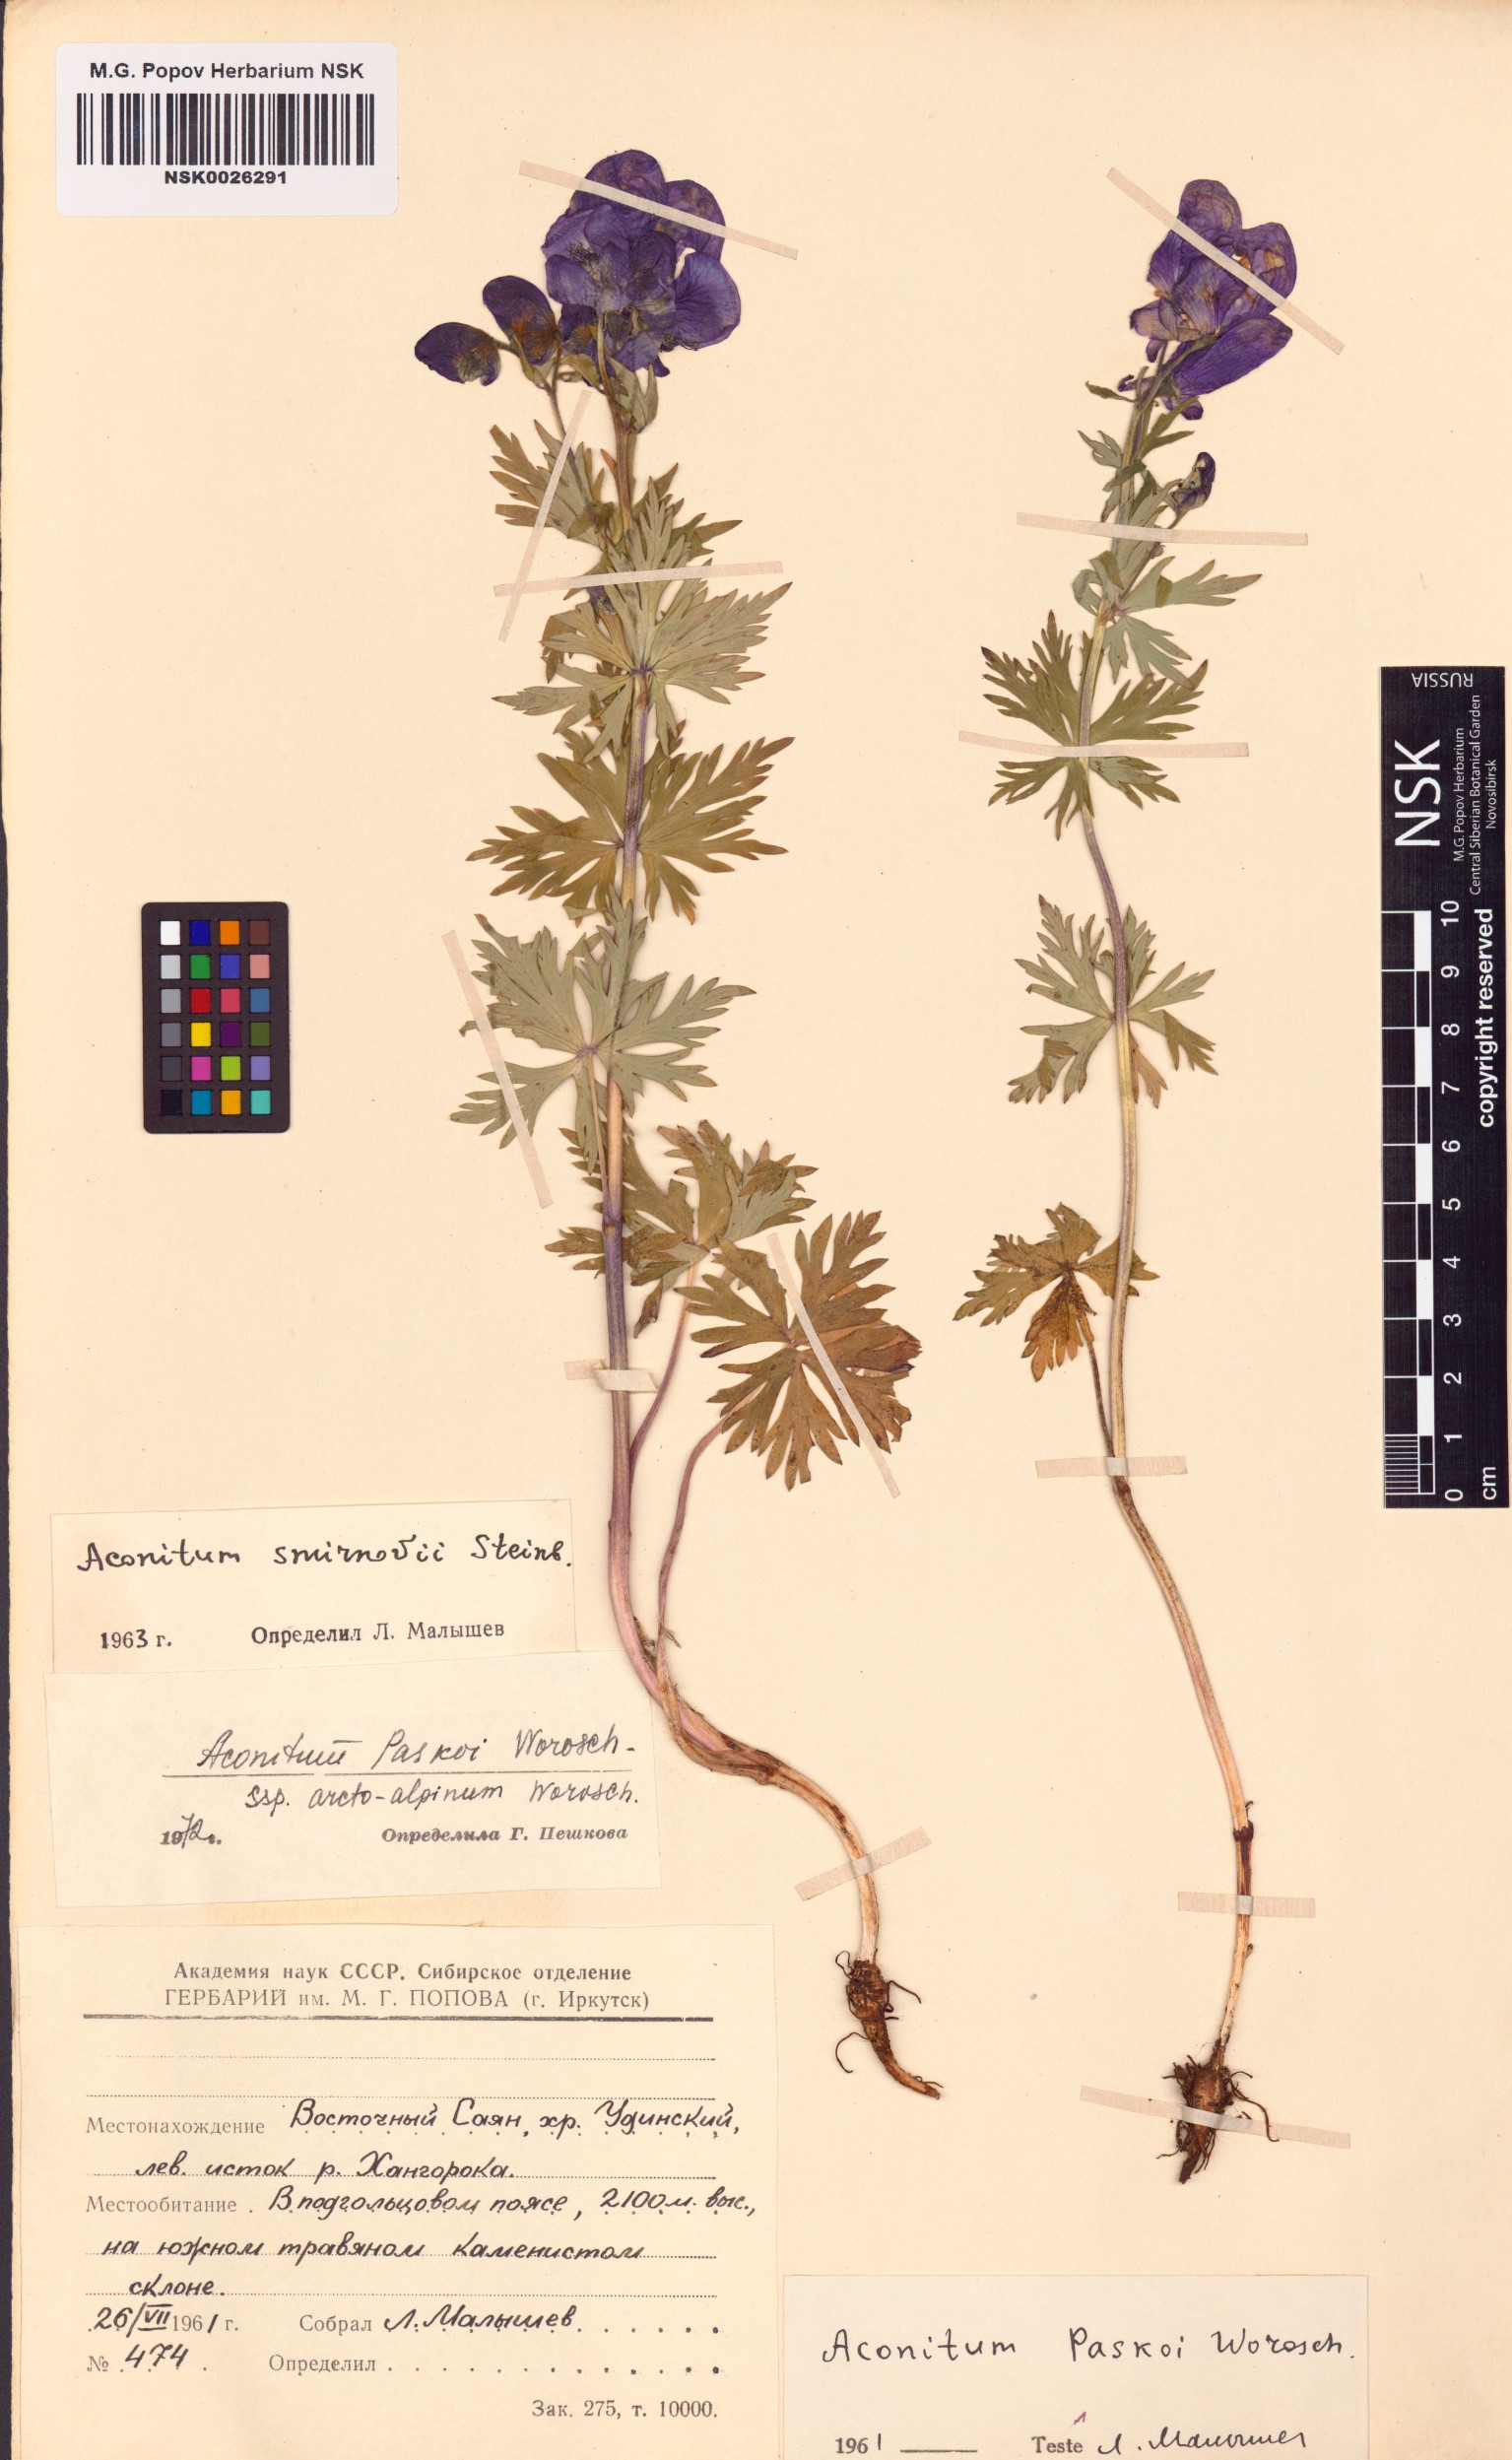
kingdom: Plantae
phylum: Tracheophyta
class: Magnoliopsida
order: Ranunculales
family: Ranunculaceae
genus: Aconitum
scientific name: Aconitum pascoi
